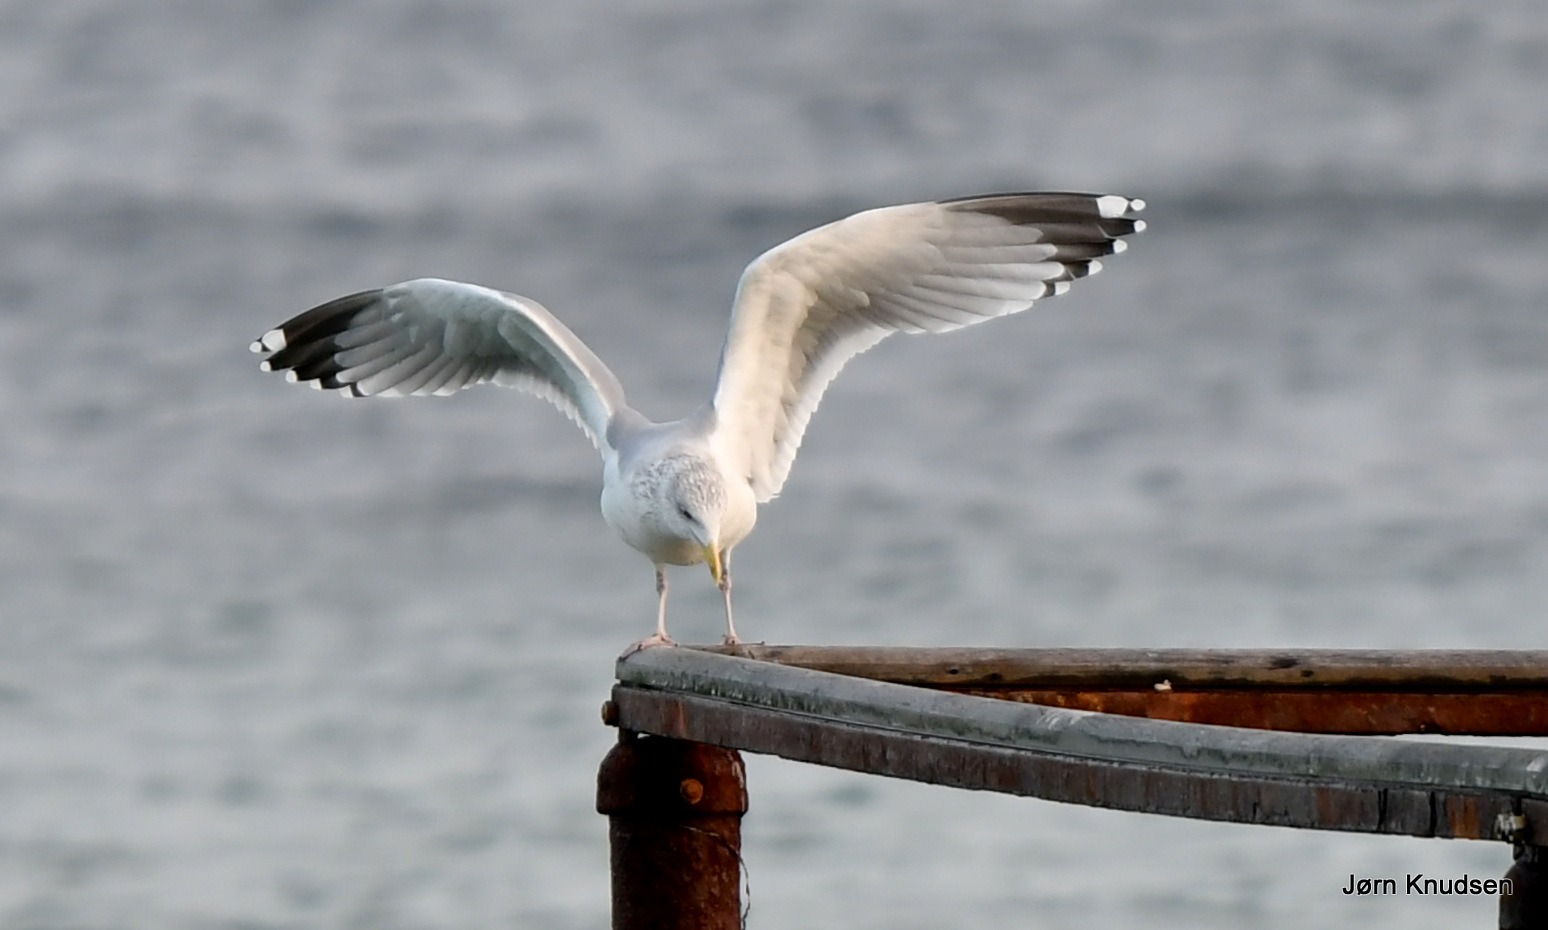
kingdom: Animalia
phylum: Chordata
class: Aves
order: Charadriiformes
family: Laridae
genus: Larus
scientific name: Larus argentatus
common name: Sølvmåge
